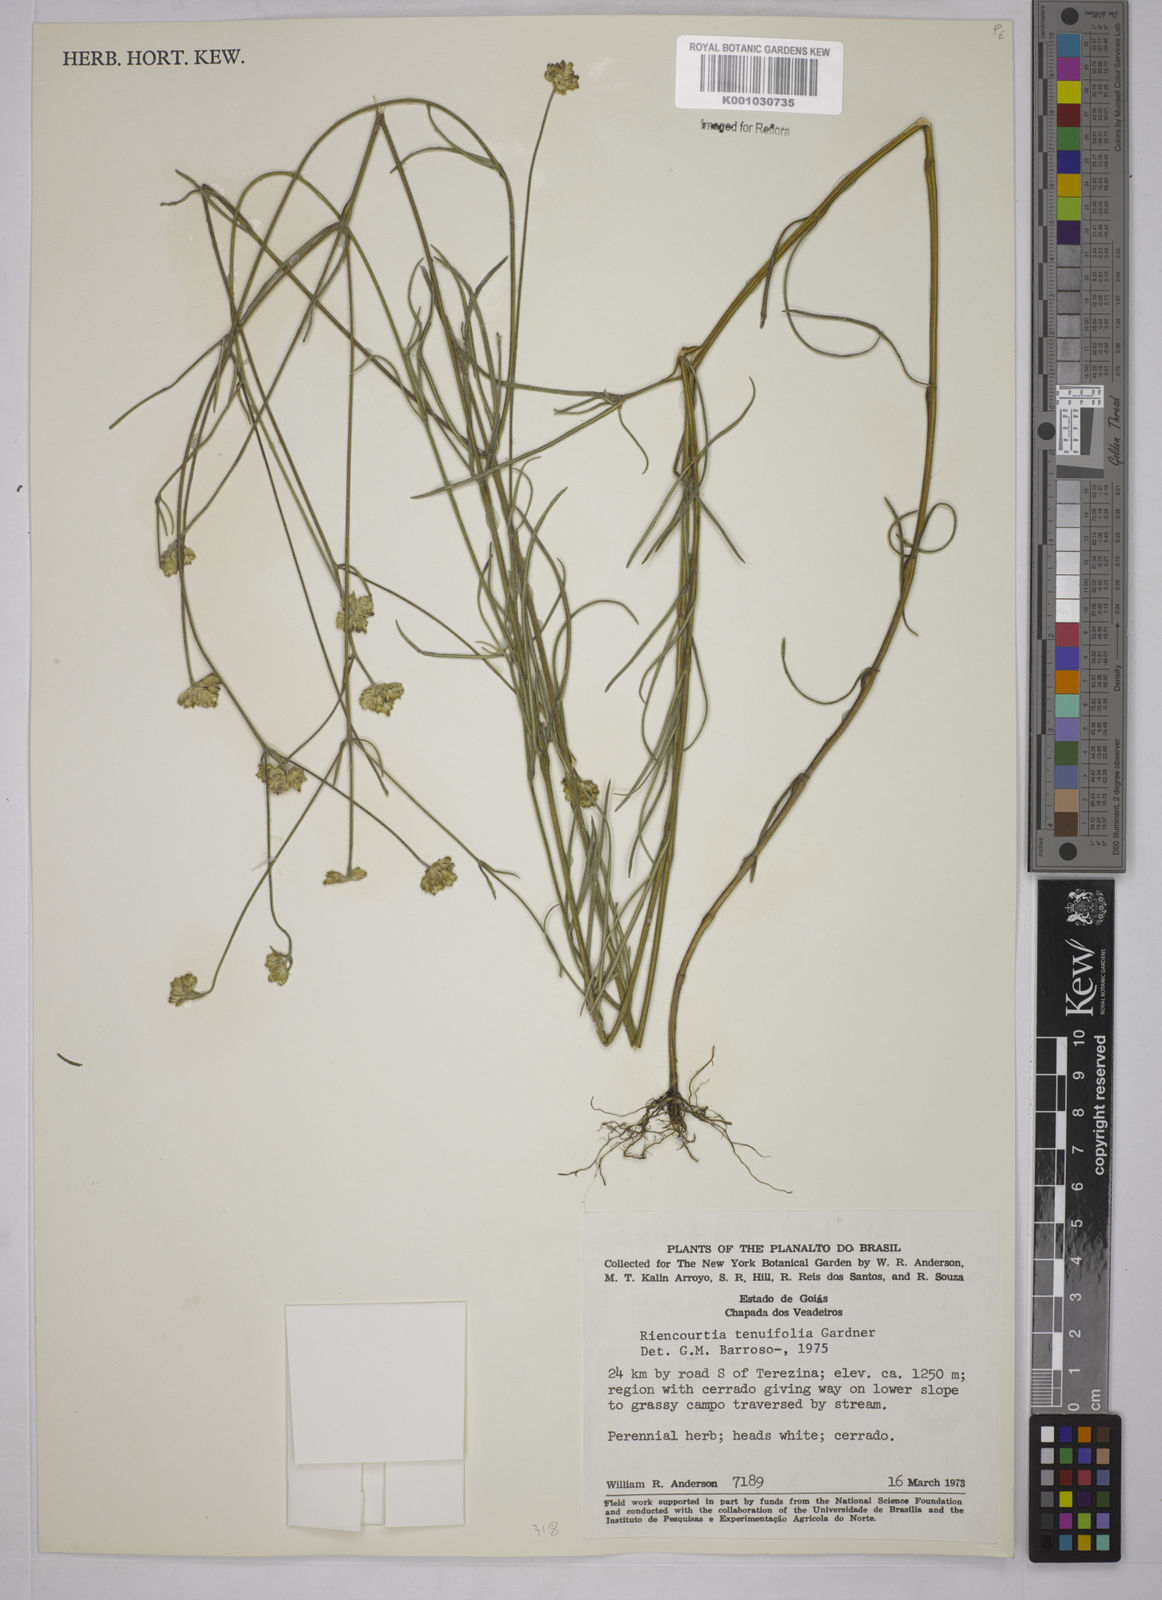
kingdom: Plantae
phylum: Tracheophyta
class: Magnoliopsida
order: Asterales
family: Asteraceae
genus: Riencourtia
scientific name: Riencourtia tenuifolia
